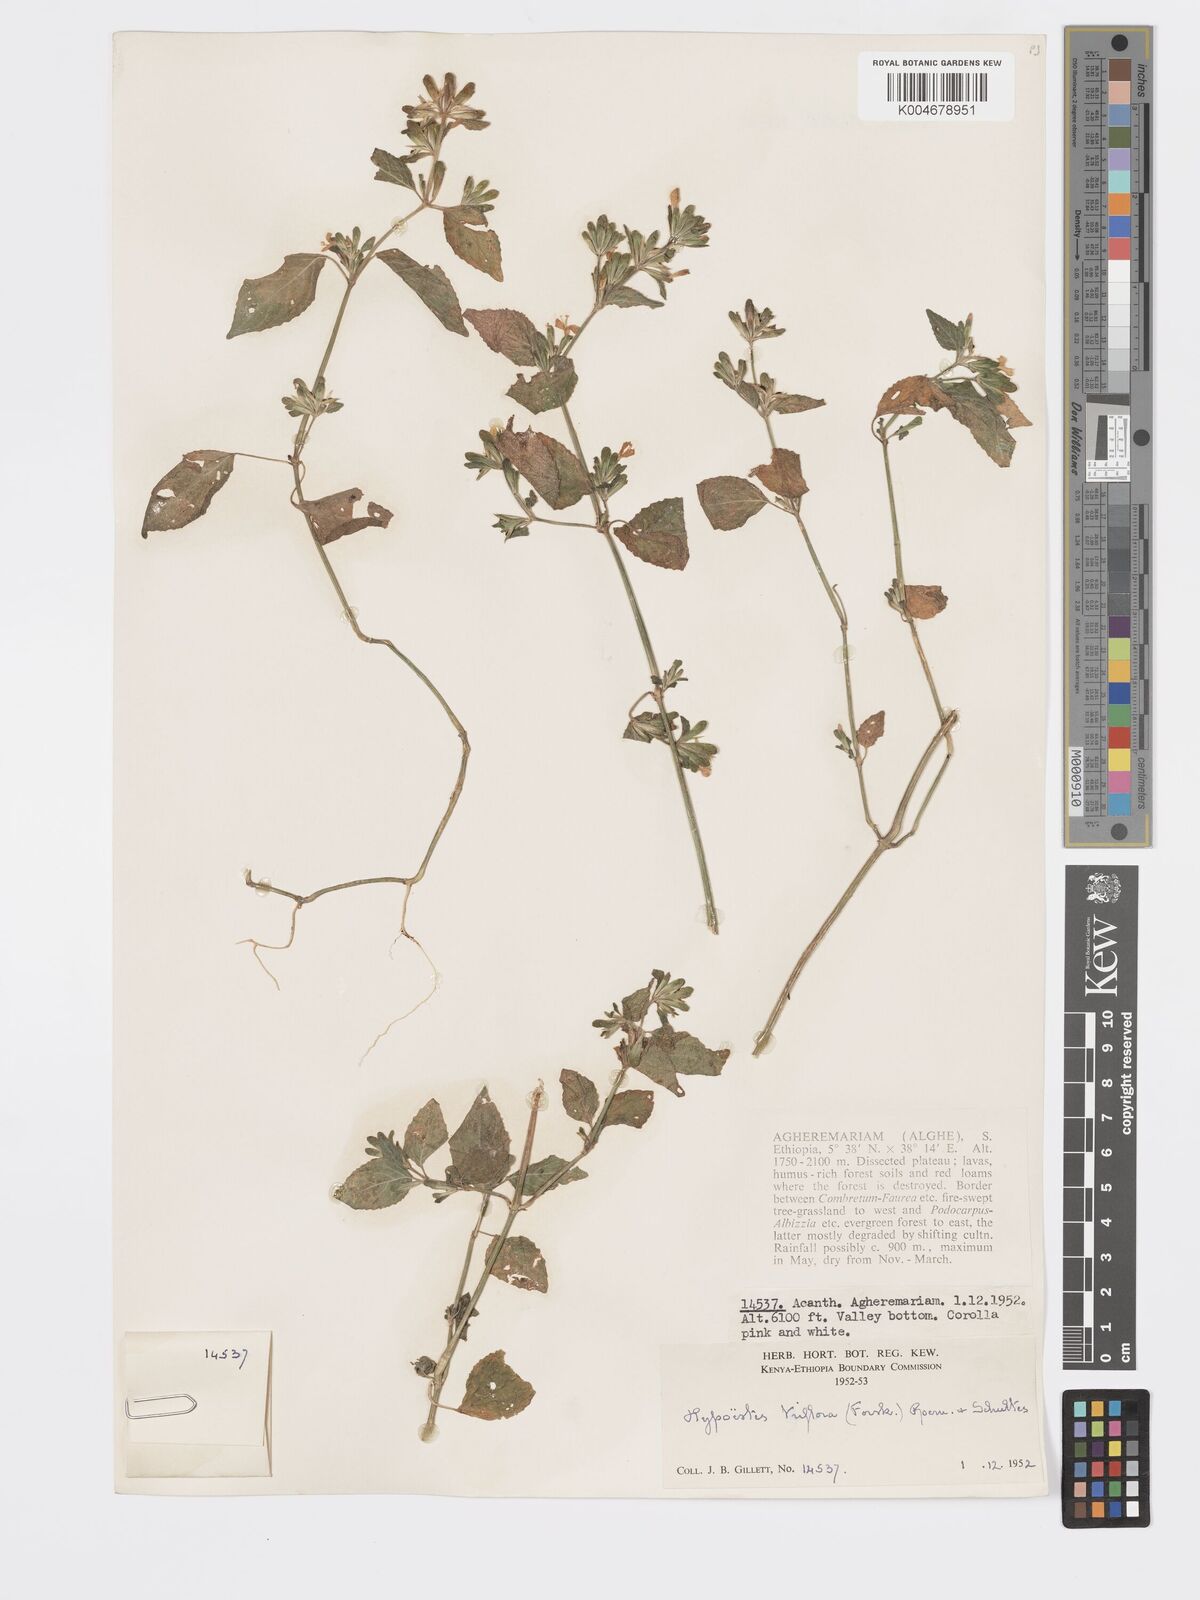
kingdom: Plantae
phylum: Tracheophyta
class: Magnoliopsida
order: Lamiales
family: Acanthaceae
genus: Hypoestes
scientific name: Hypoestes triflora
